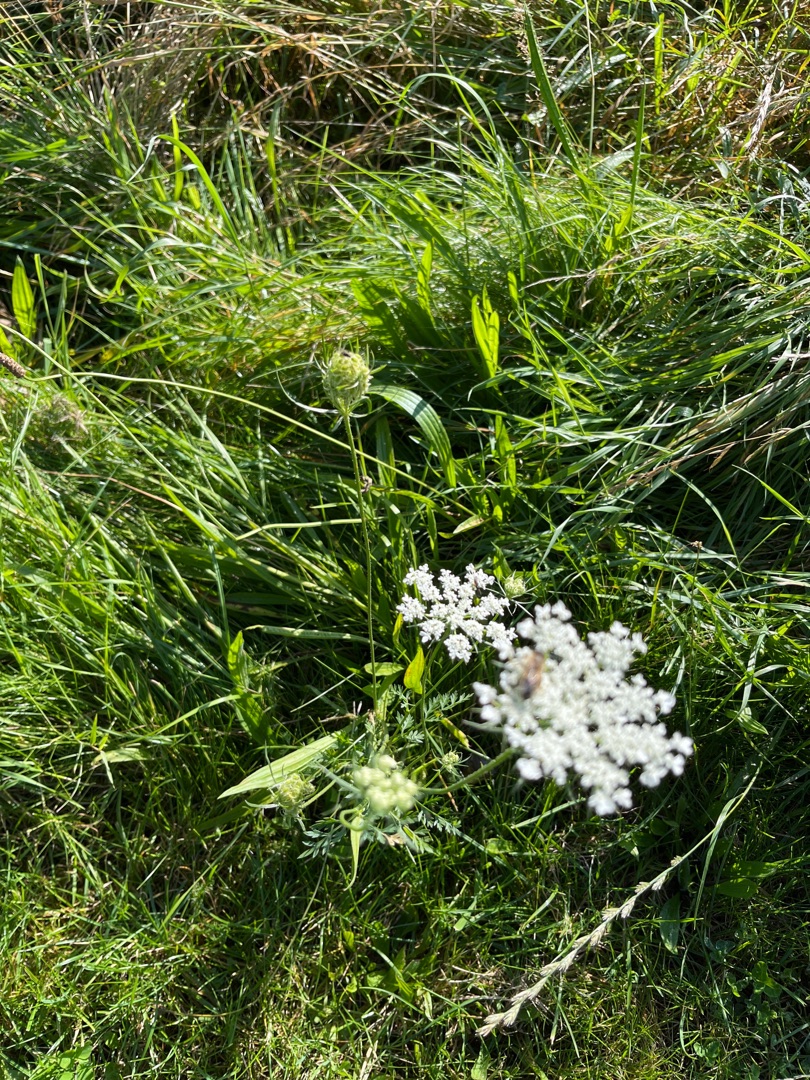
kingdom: Plantae
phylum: Tracheophyta
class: Magnoliopsida
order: Apiales
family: Apiaceae
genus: Daucus
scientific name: Daucus carota
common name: Gulerod
